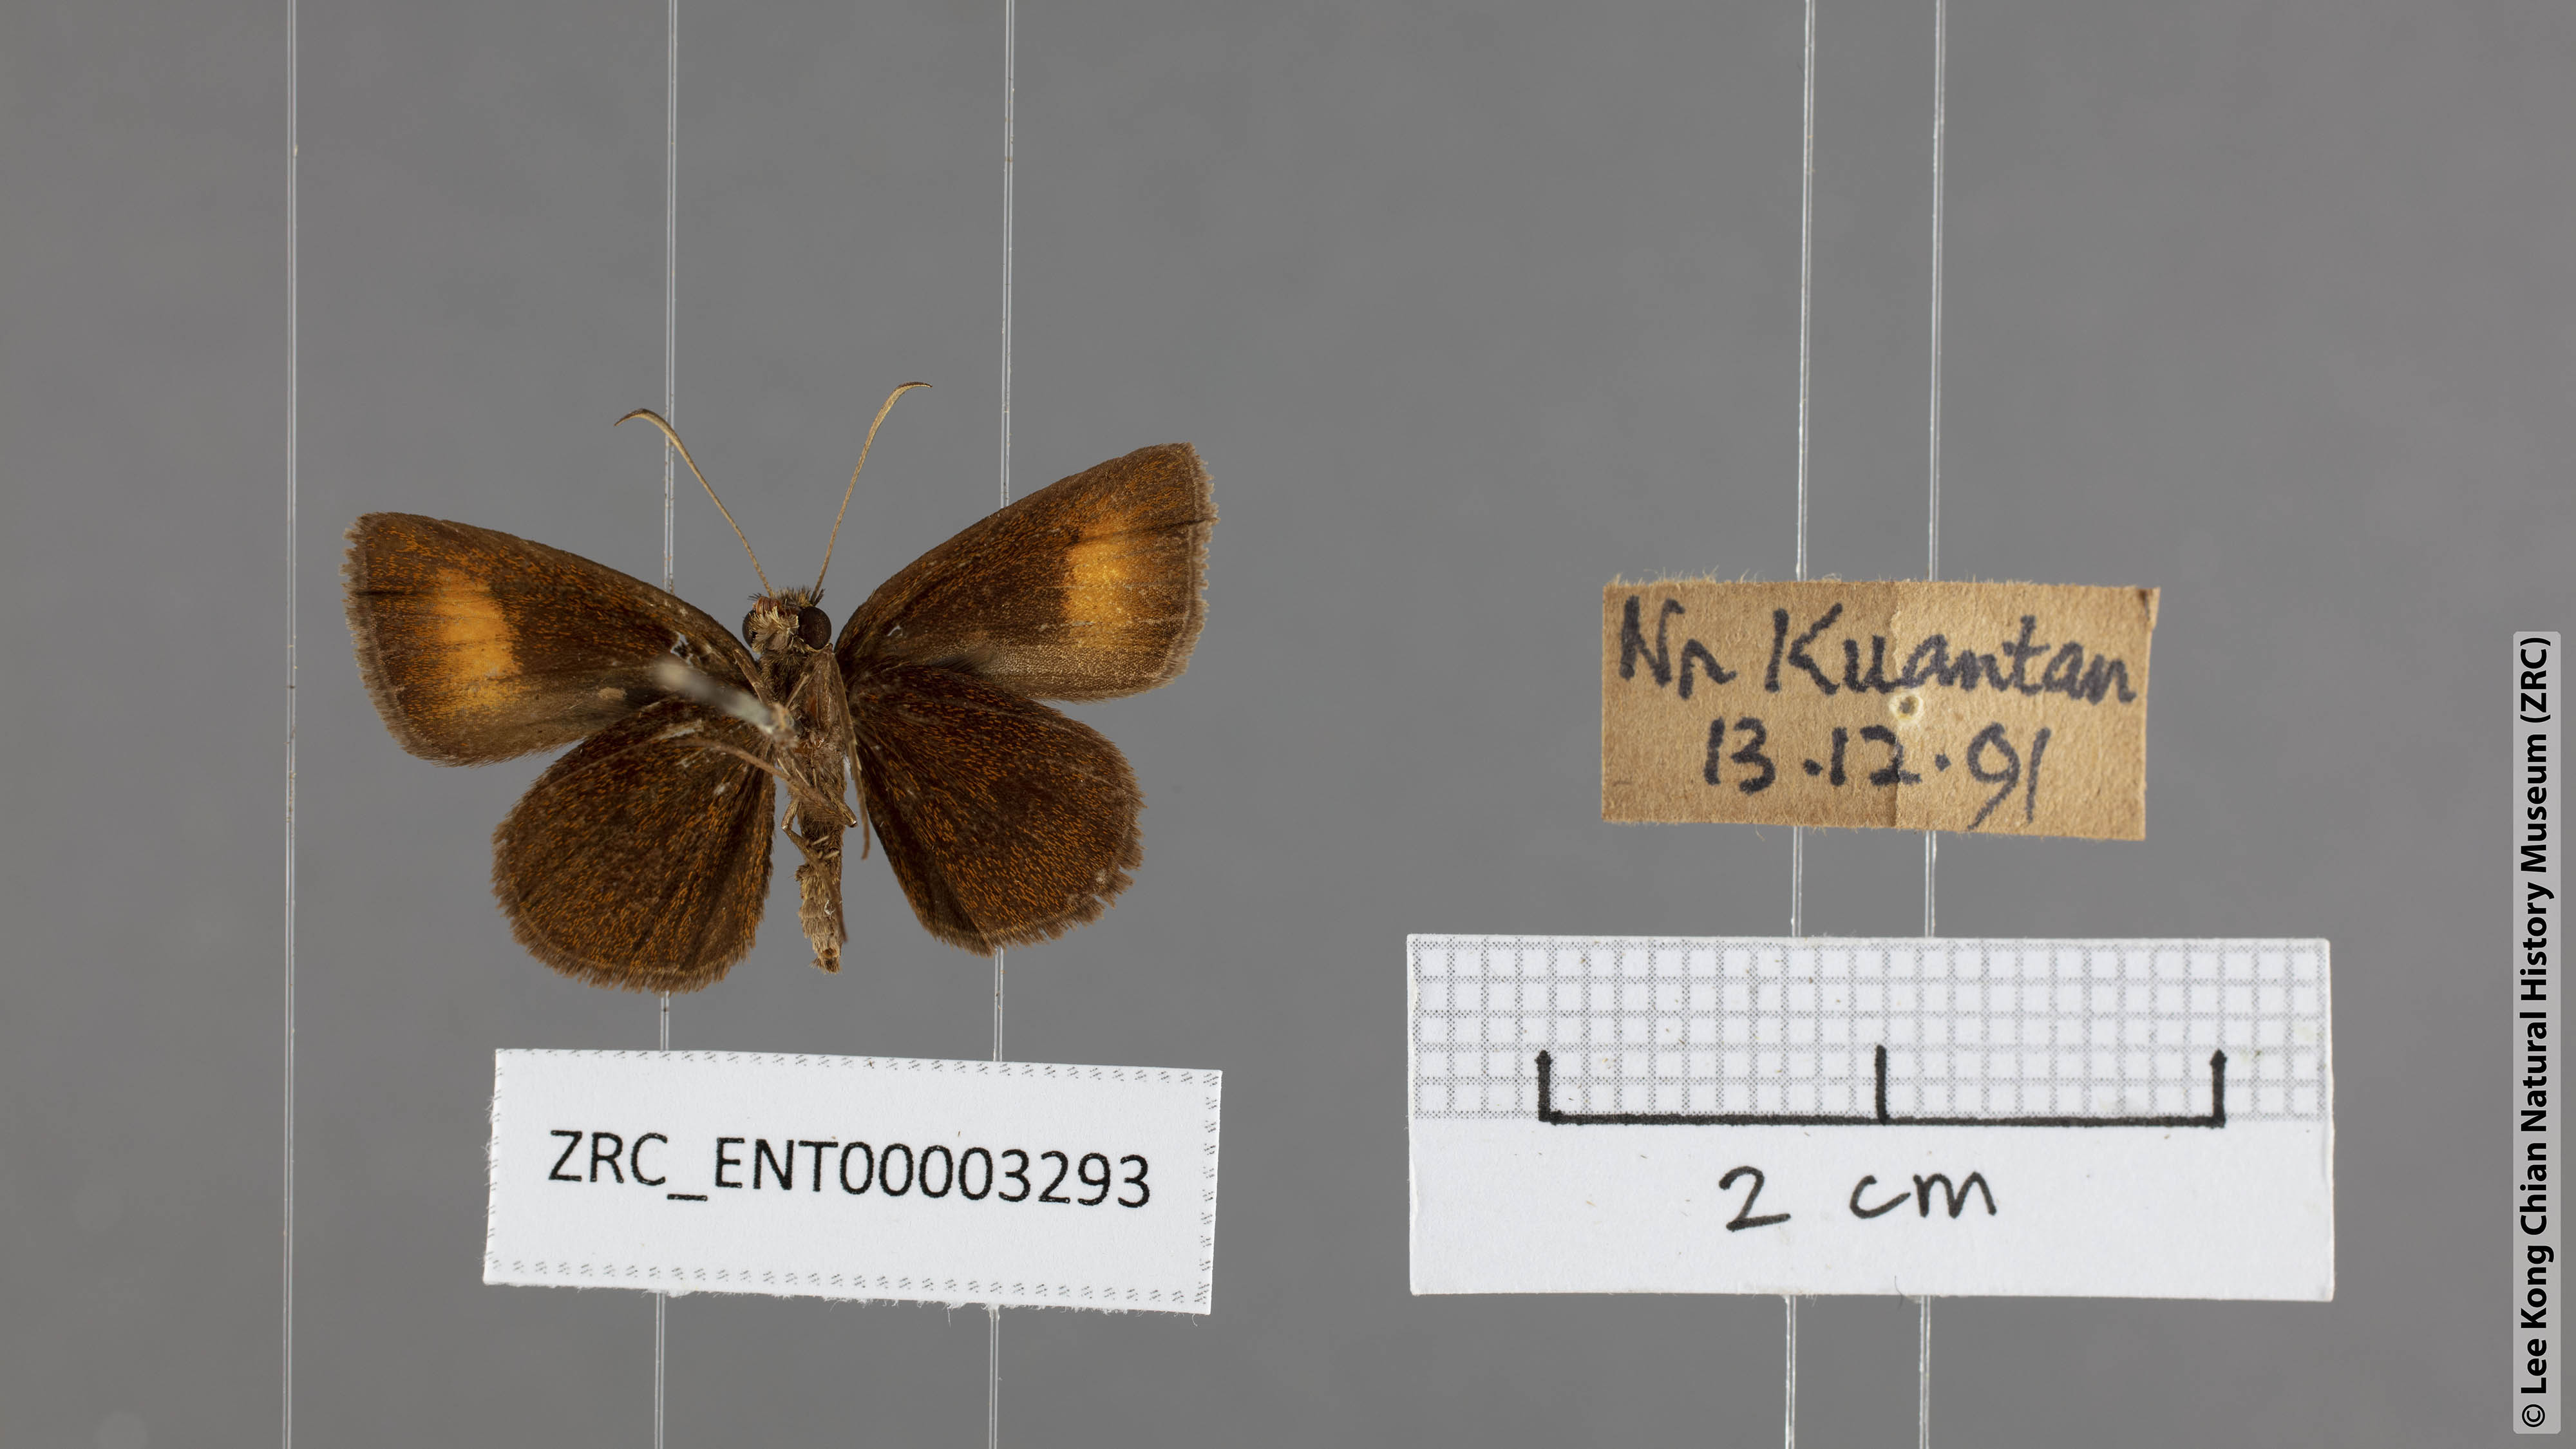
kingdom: Animalia
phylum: Arthropoda
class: Insecta
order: Lepidoptera
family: Hesperiidae
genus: Iambrix
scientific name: Iambrix Idmon obliquans
